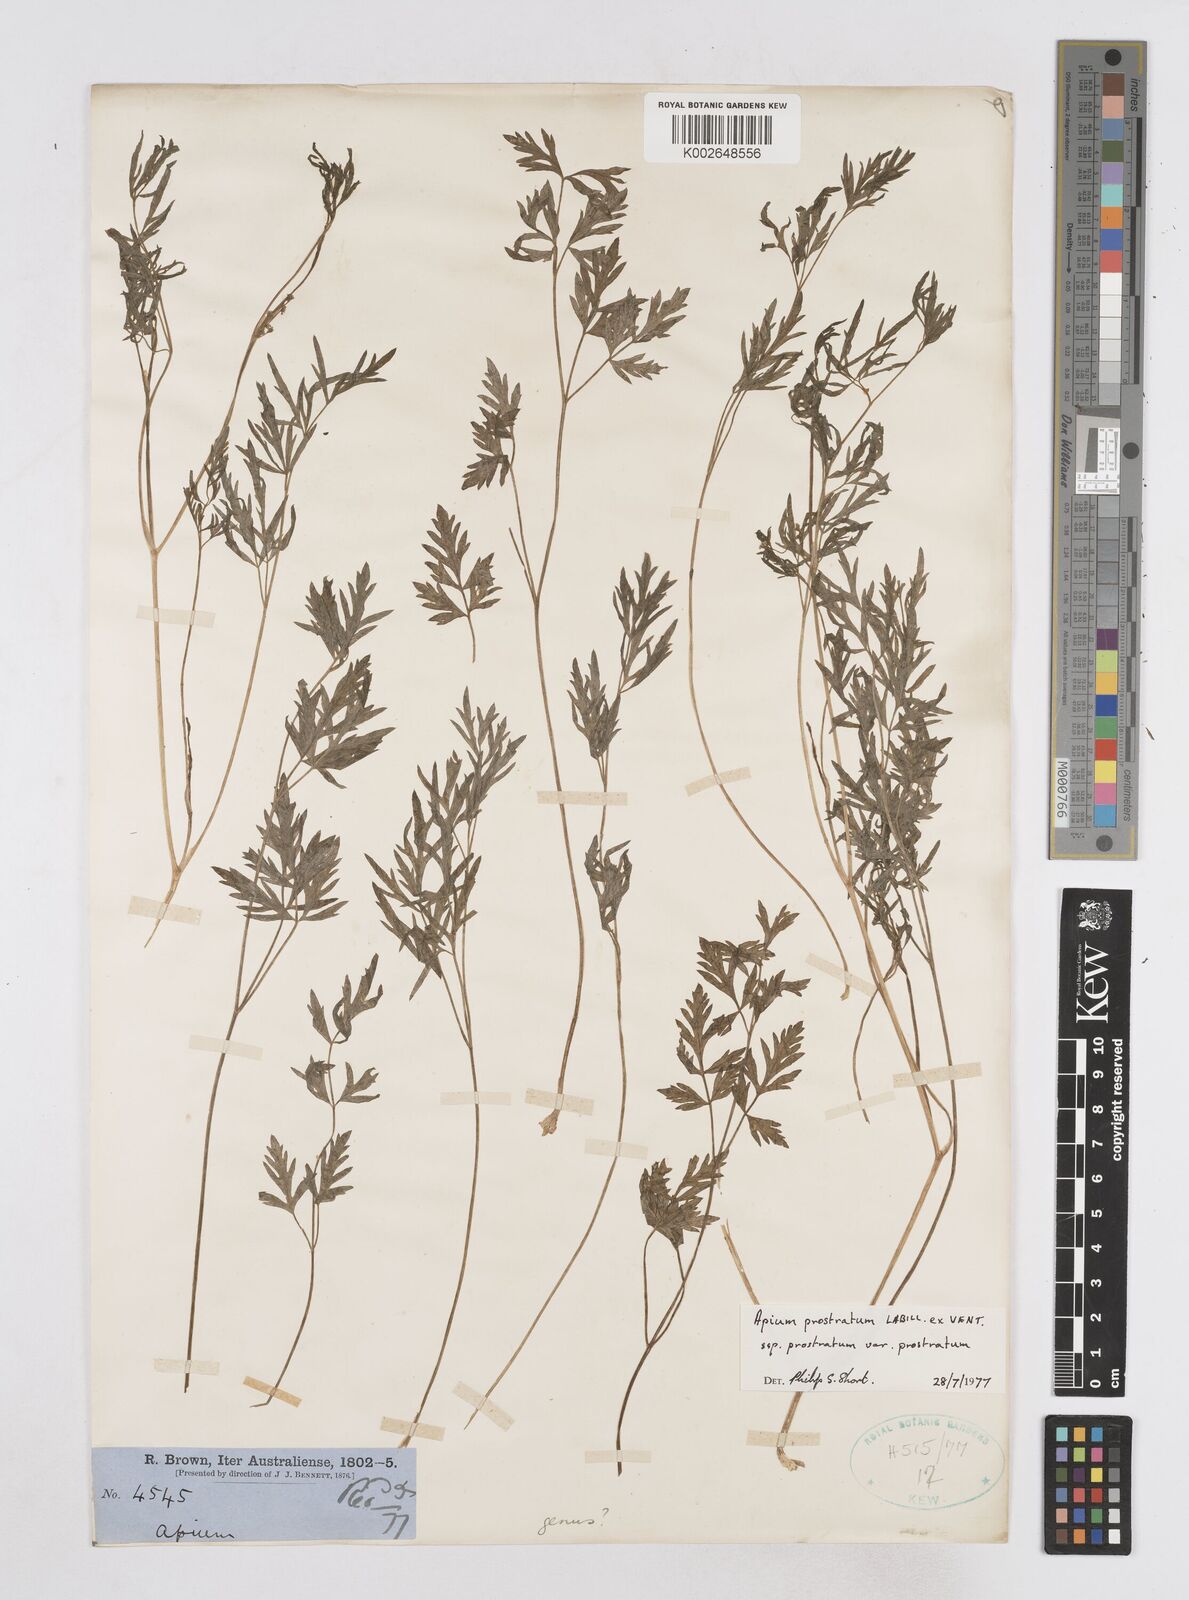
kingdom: Plantae
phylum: Tracheophyta
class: Magnoliopsida
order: Apiales
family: Apiaceae
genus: Apium
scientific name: Apium prostratum
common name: Prostrate marshwort
